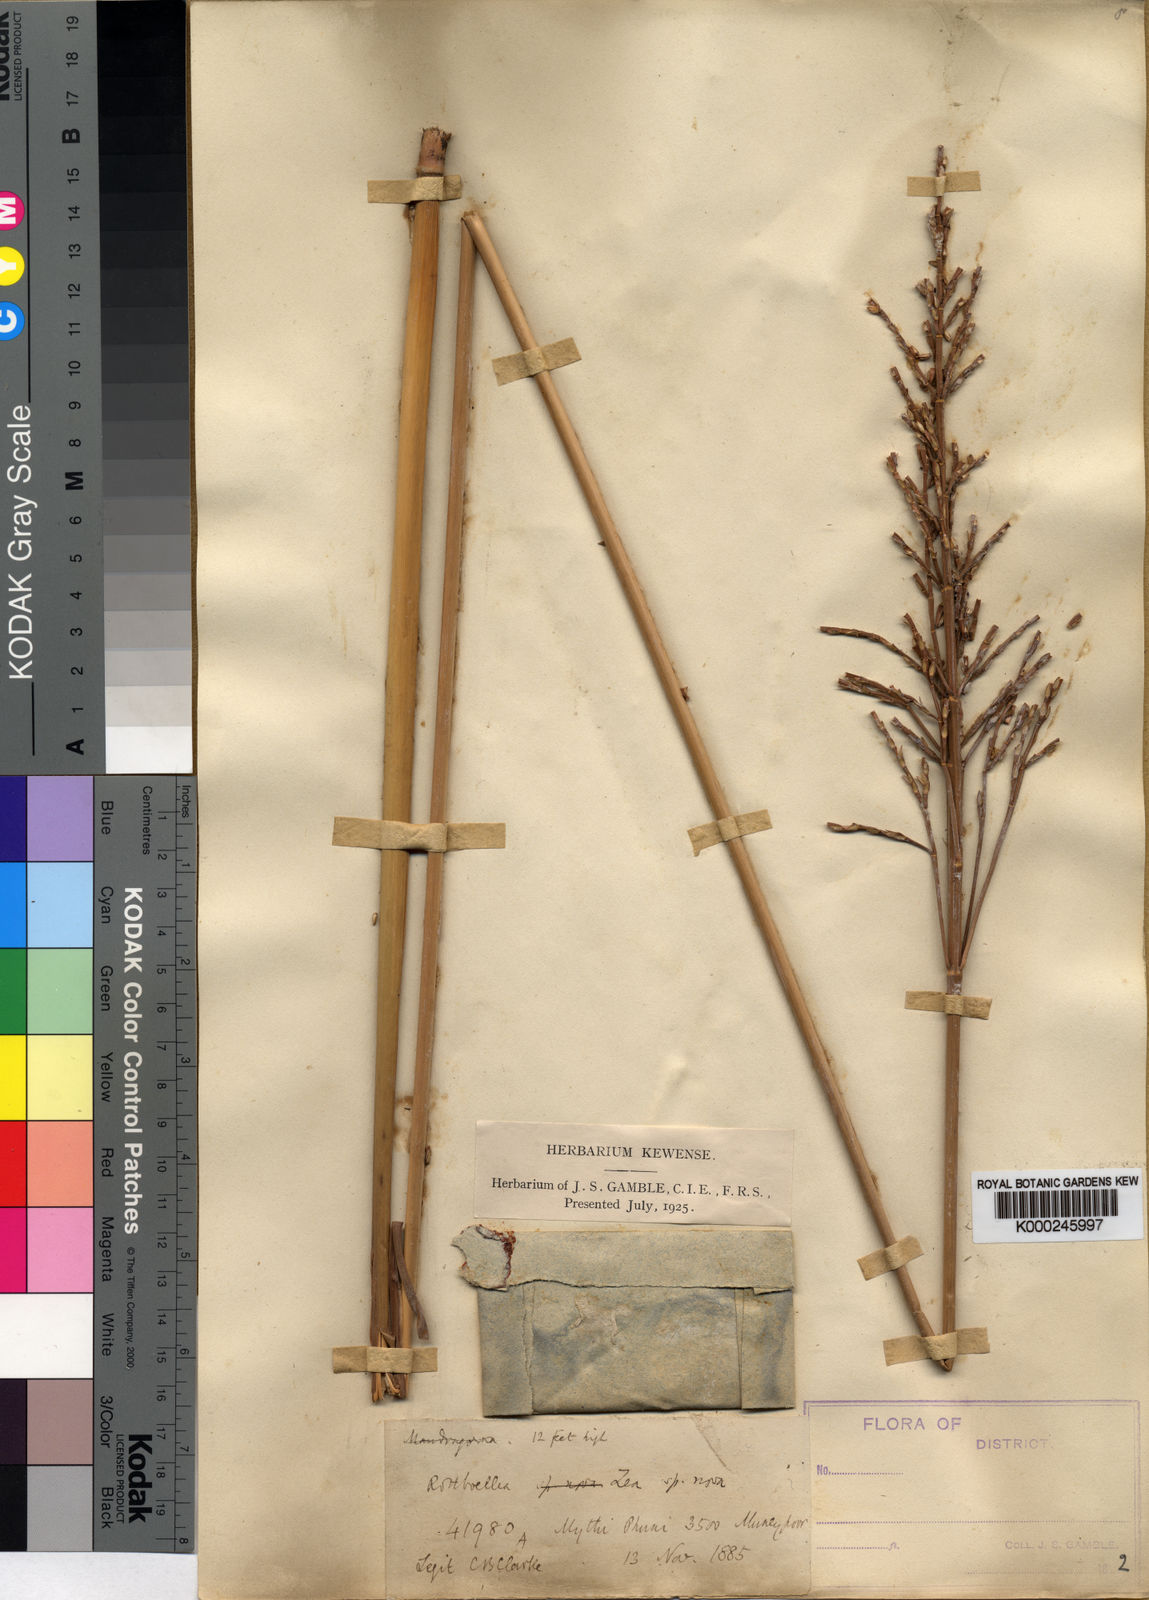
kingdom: Plantae
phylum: Tracheophyta
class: Liliopsida
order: Poales
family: Poaceae
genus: Thyrsia
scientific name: Thyrsia zea
